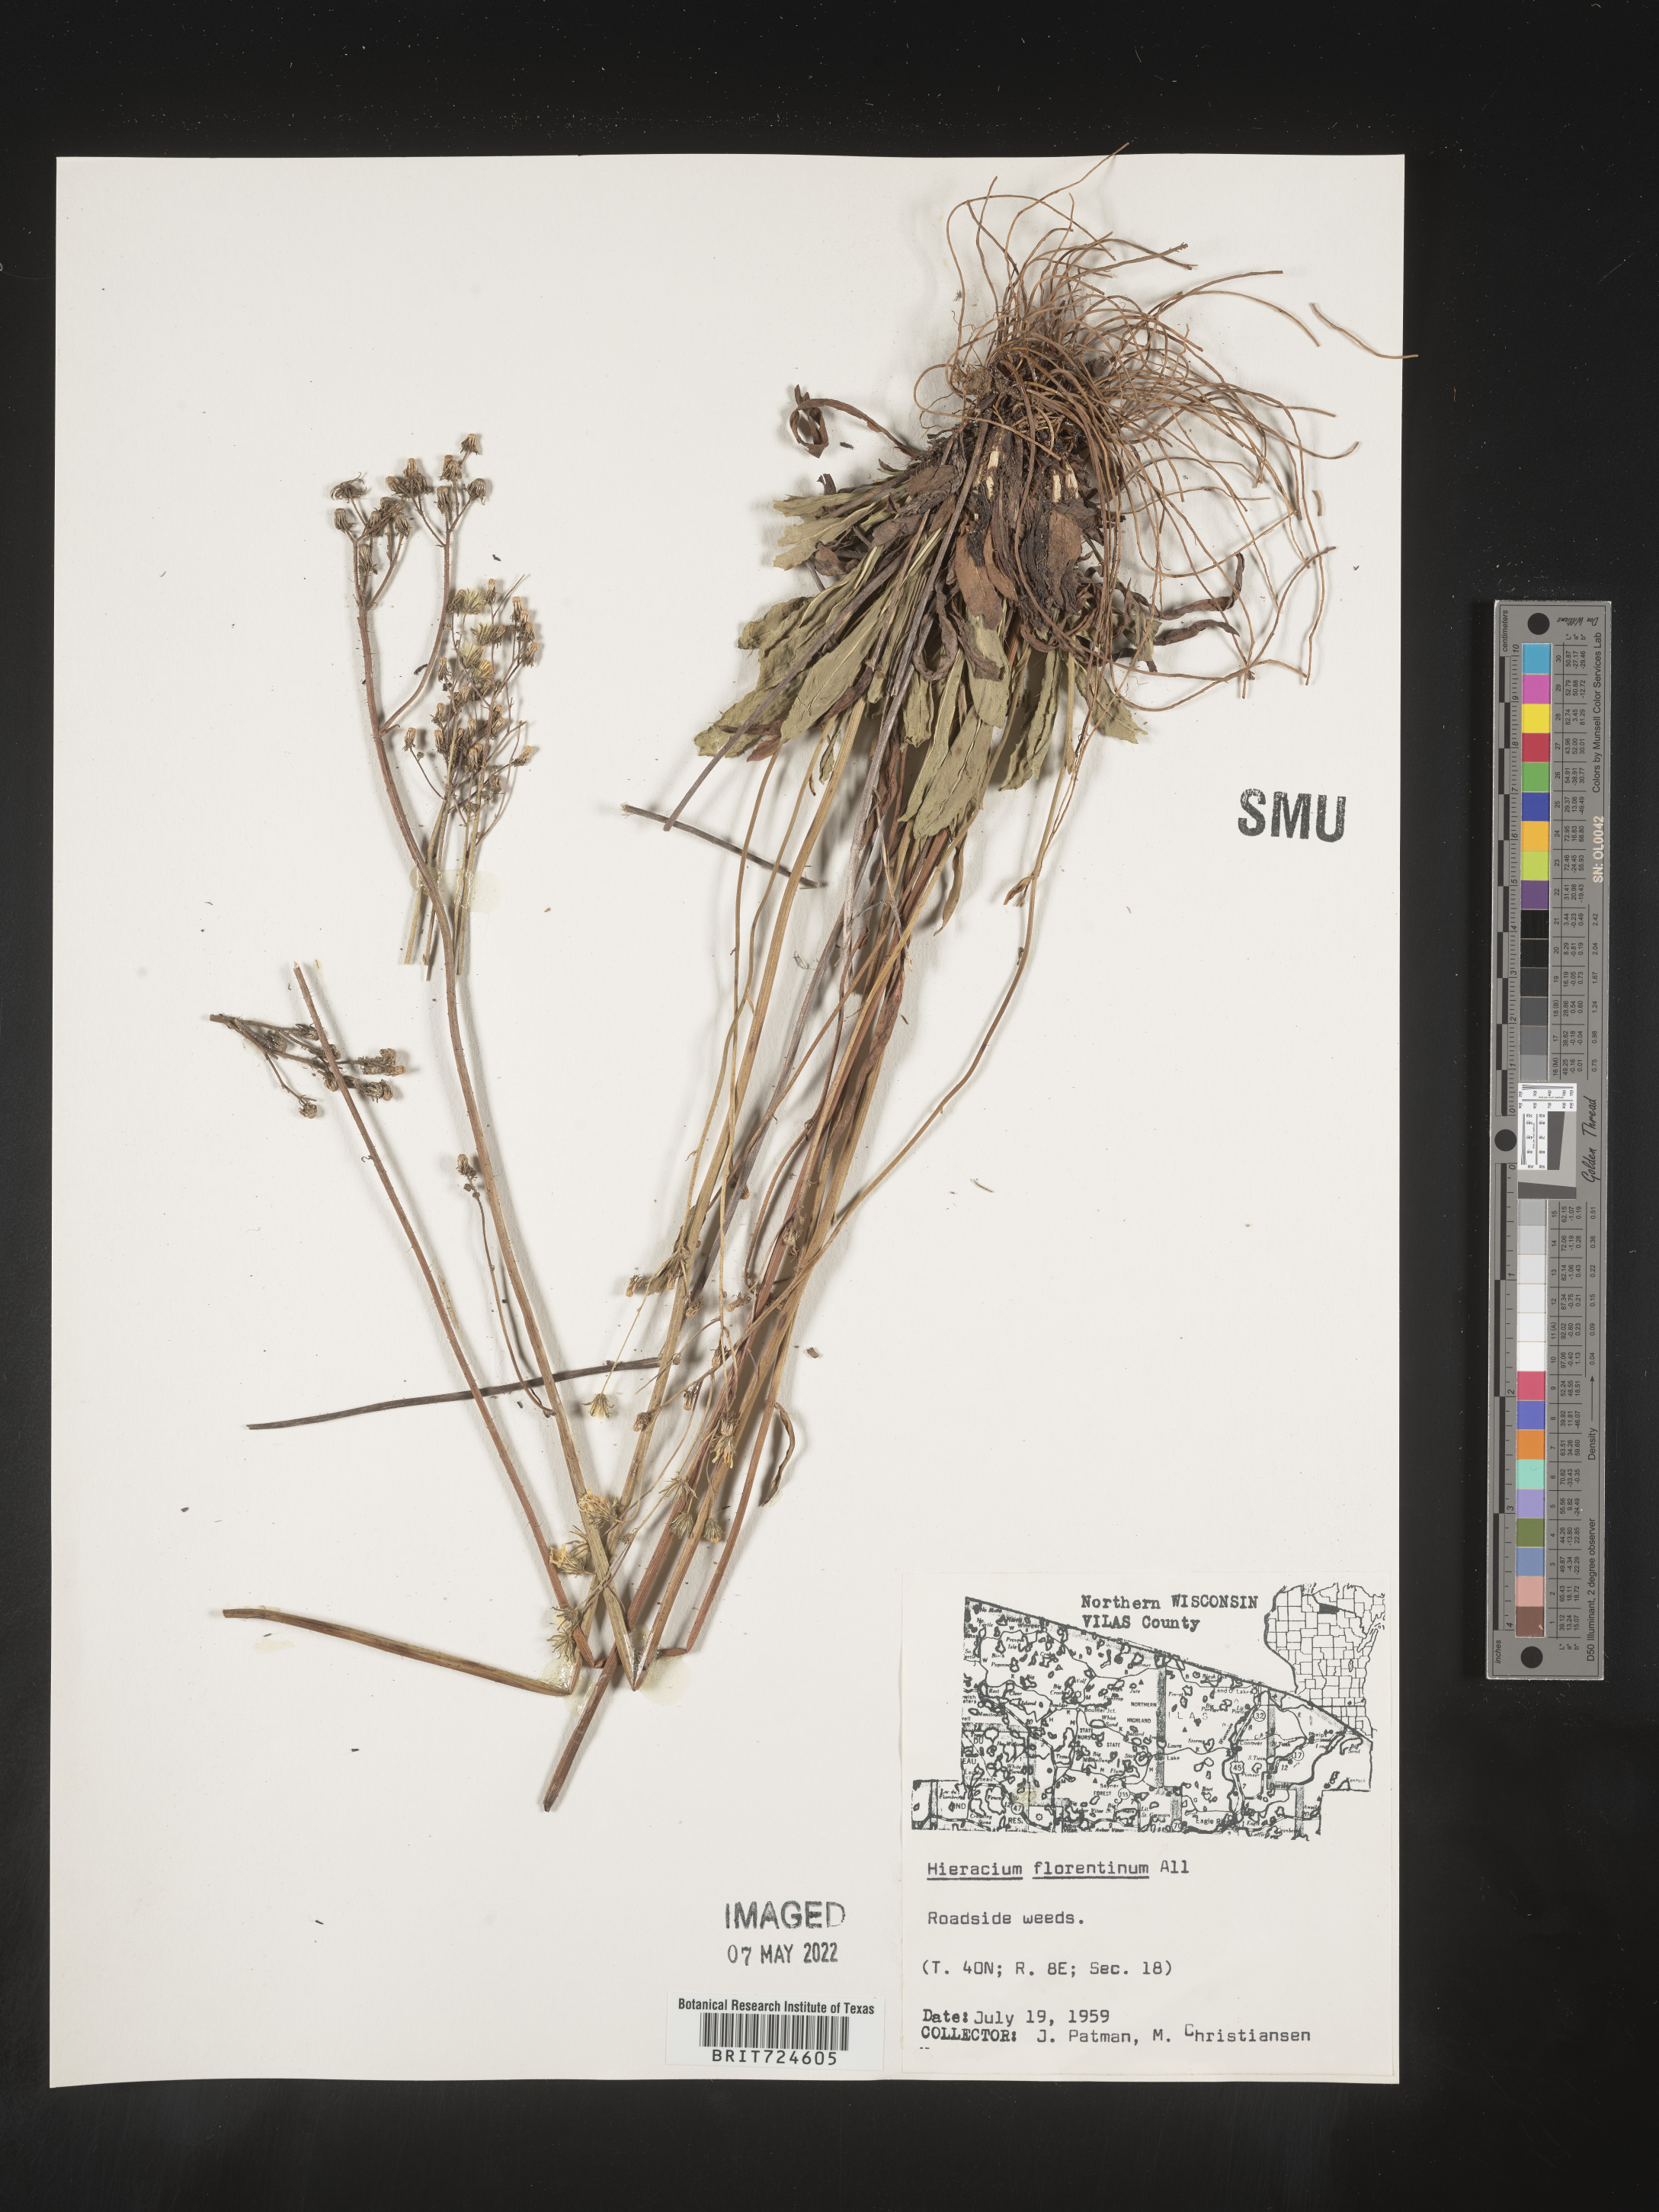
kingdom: Plantae
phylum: Tracheophyta
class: Magnoliopsida
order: Asterales
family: Asteraceae
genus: Pilosella
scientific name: Pilosella piloselloides
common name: Glaucous king-devil
